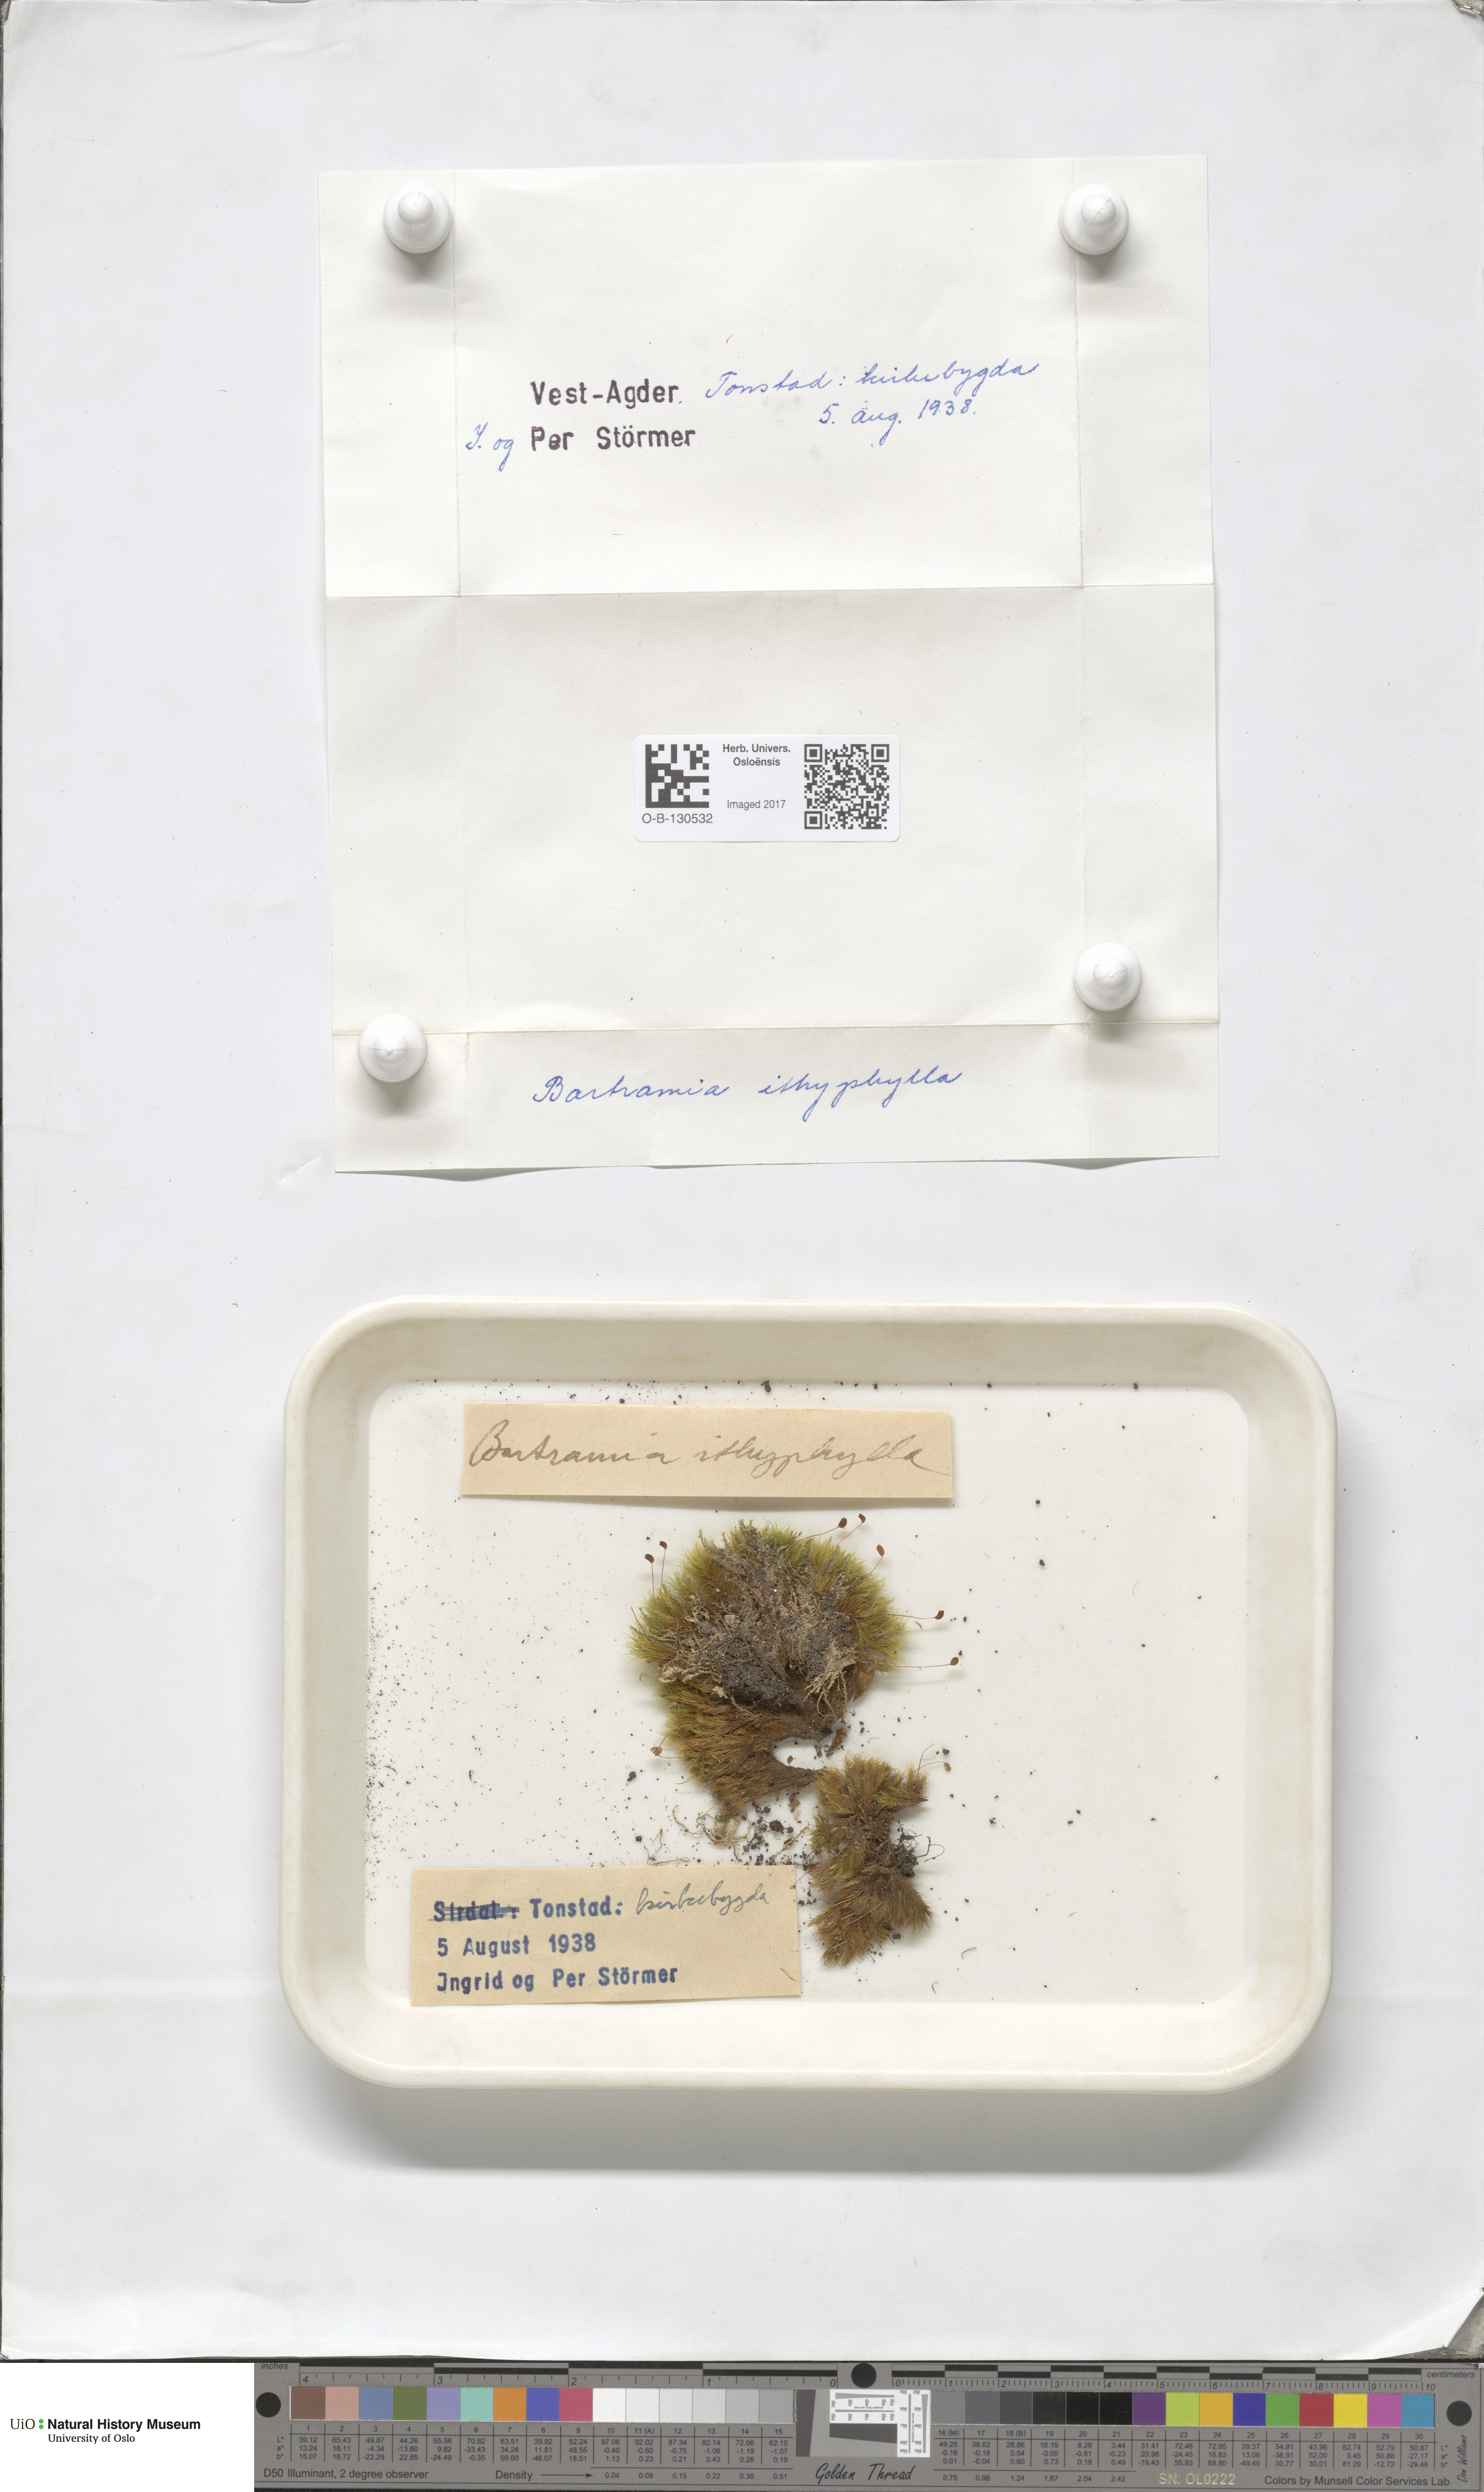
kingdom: Plantae
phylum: Bryophyta
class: Bryopsida
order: Bartramiales
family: Bartramiaceae
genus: Bartramia
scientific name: Bartramia ithyphylla
